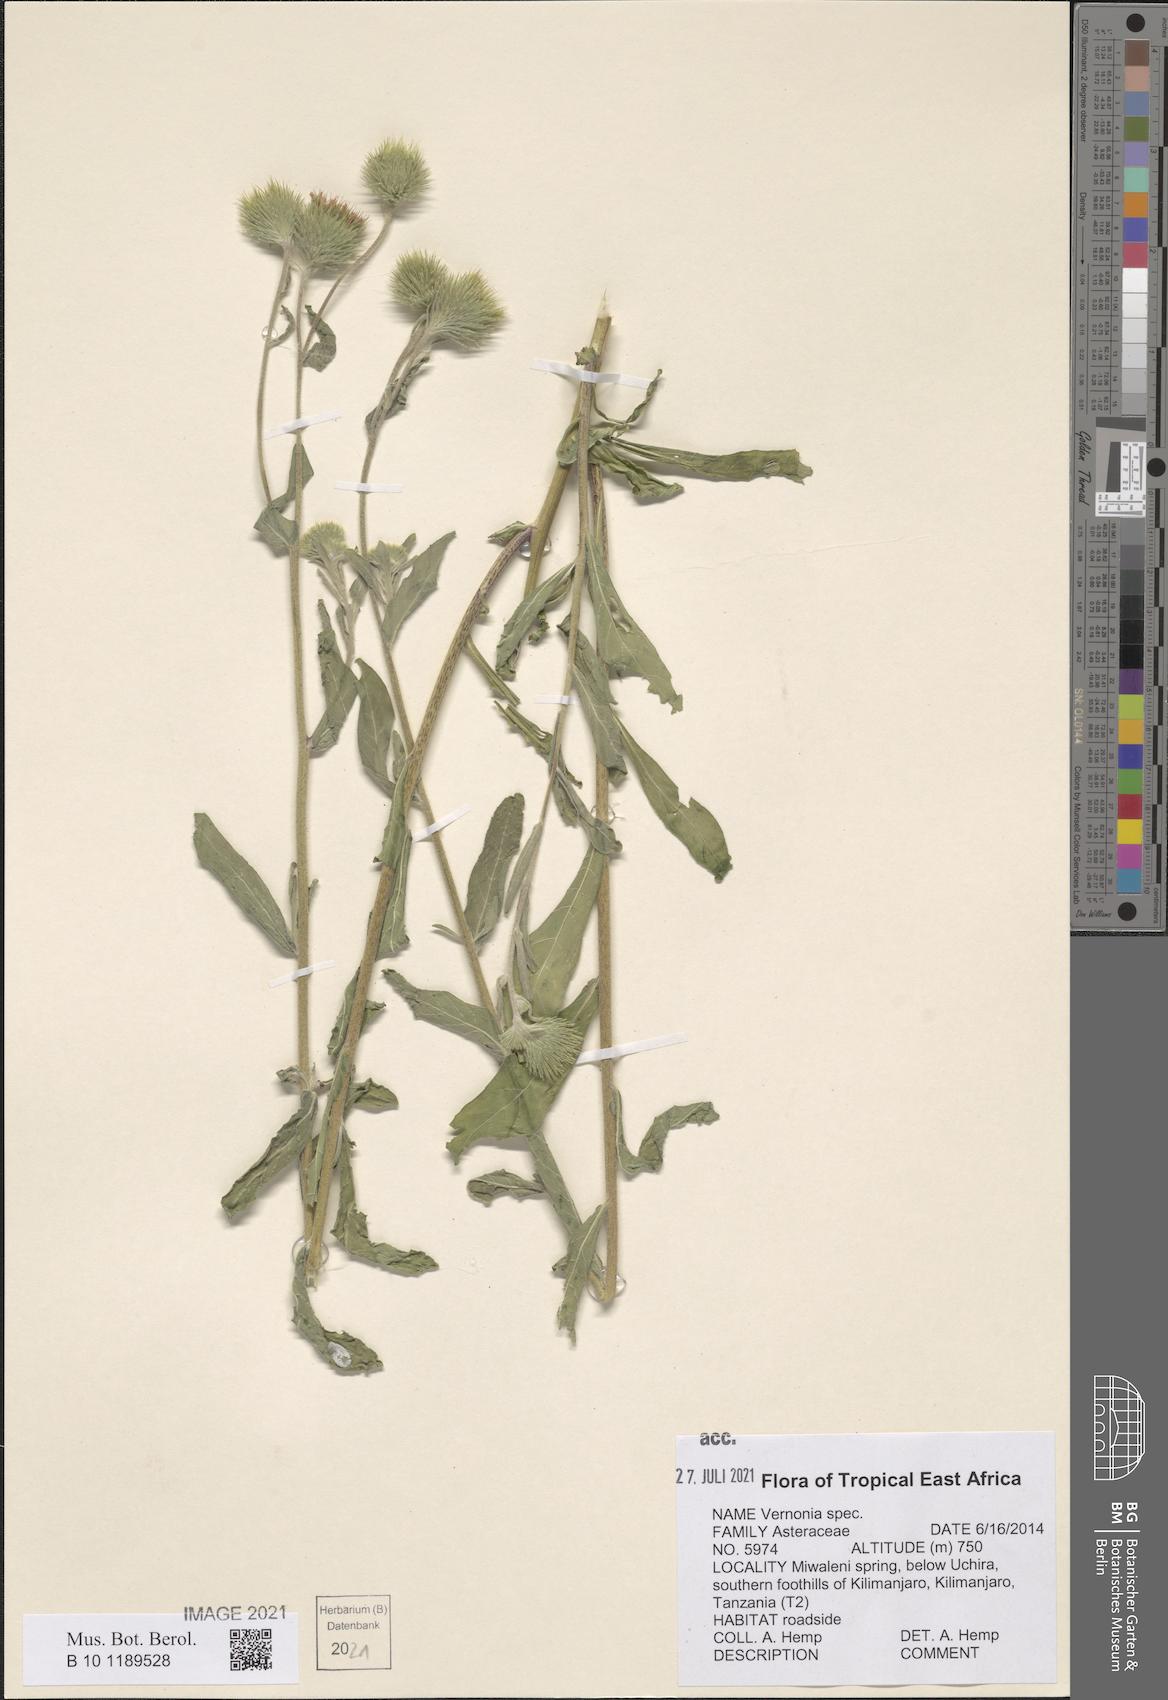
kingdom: Plantae
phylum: Tracheophyta
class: Magnoliopsida
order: Asterales
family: Asteraceae
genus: Vernonia
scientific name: Vernonia
